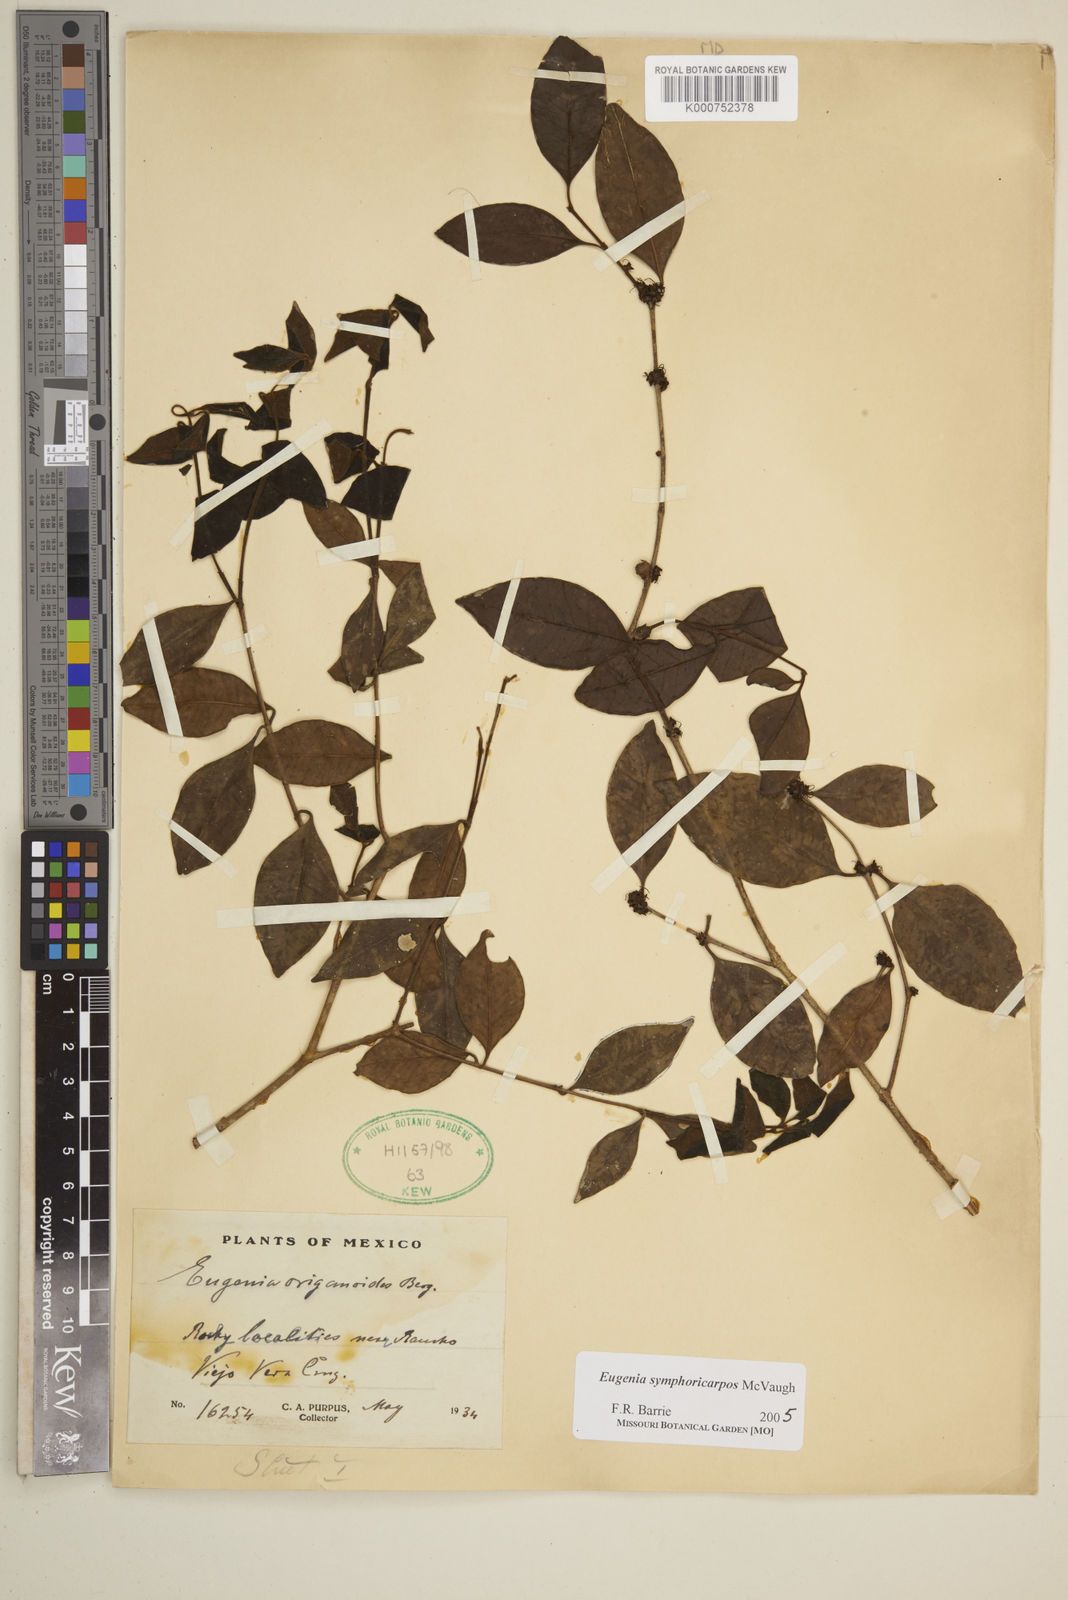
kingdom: Plantae
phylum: Tracheophyta
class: Magnoliopsida
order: Myrtales
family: Myrtaceae
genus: Eugenia
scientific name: Eugenia symphoricarpos
